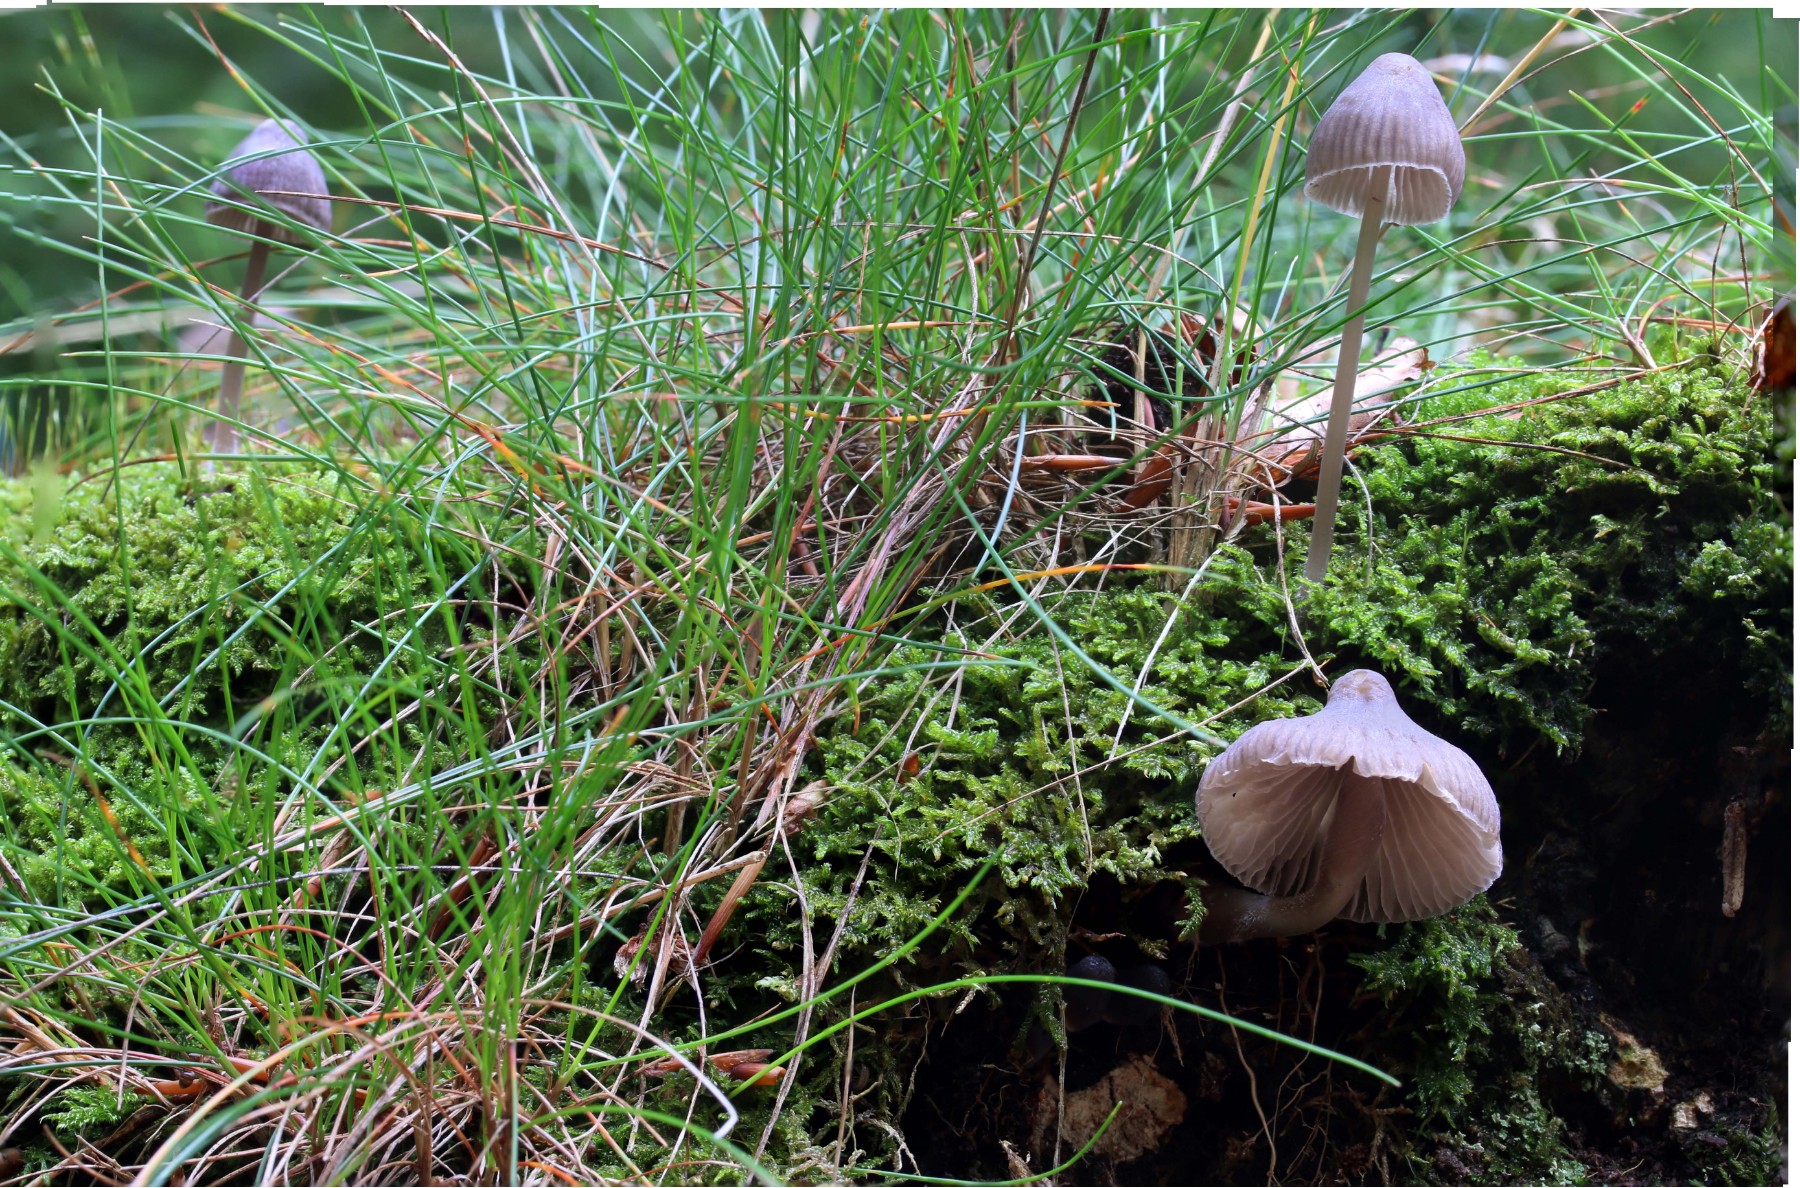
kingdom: Fungi
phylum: Basidiomycota
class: Agaricomycetes
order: Agaricales
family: Mycenaceae
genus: Mycena
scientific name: Mycena
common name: huesvamp
